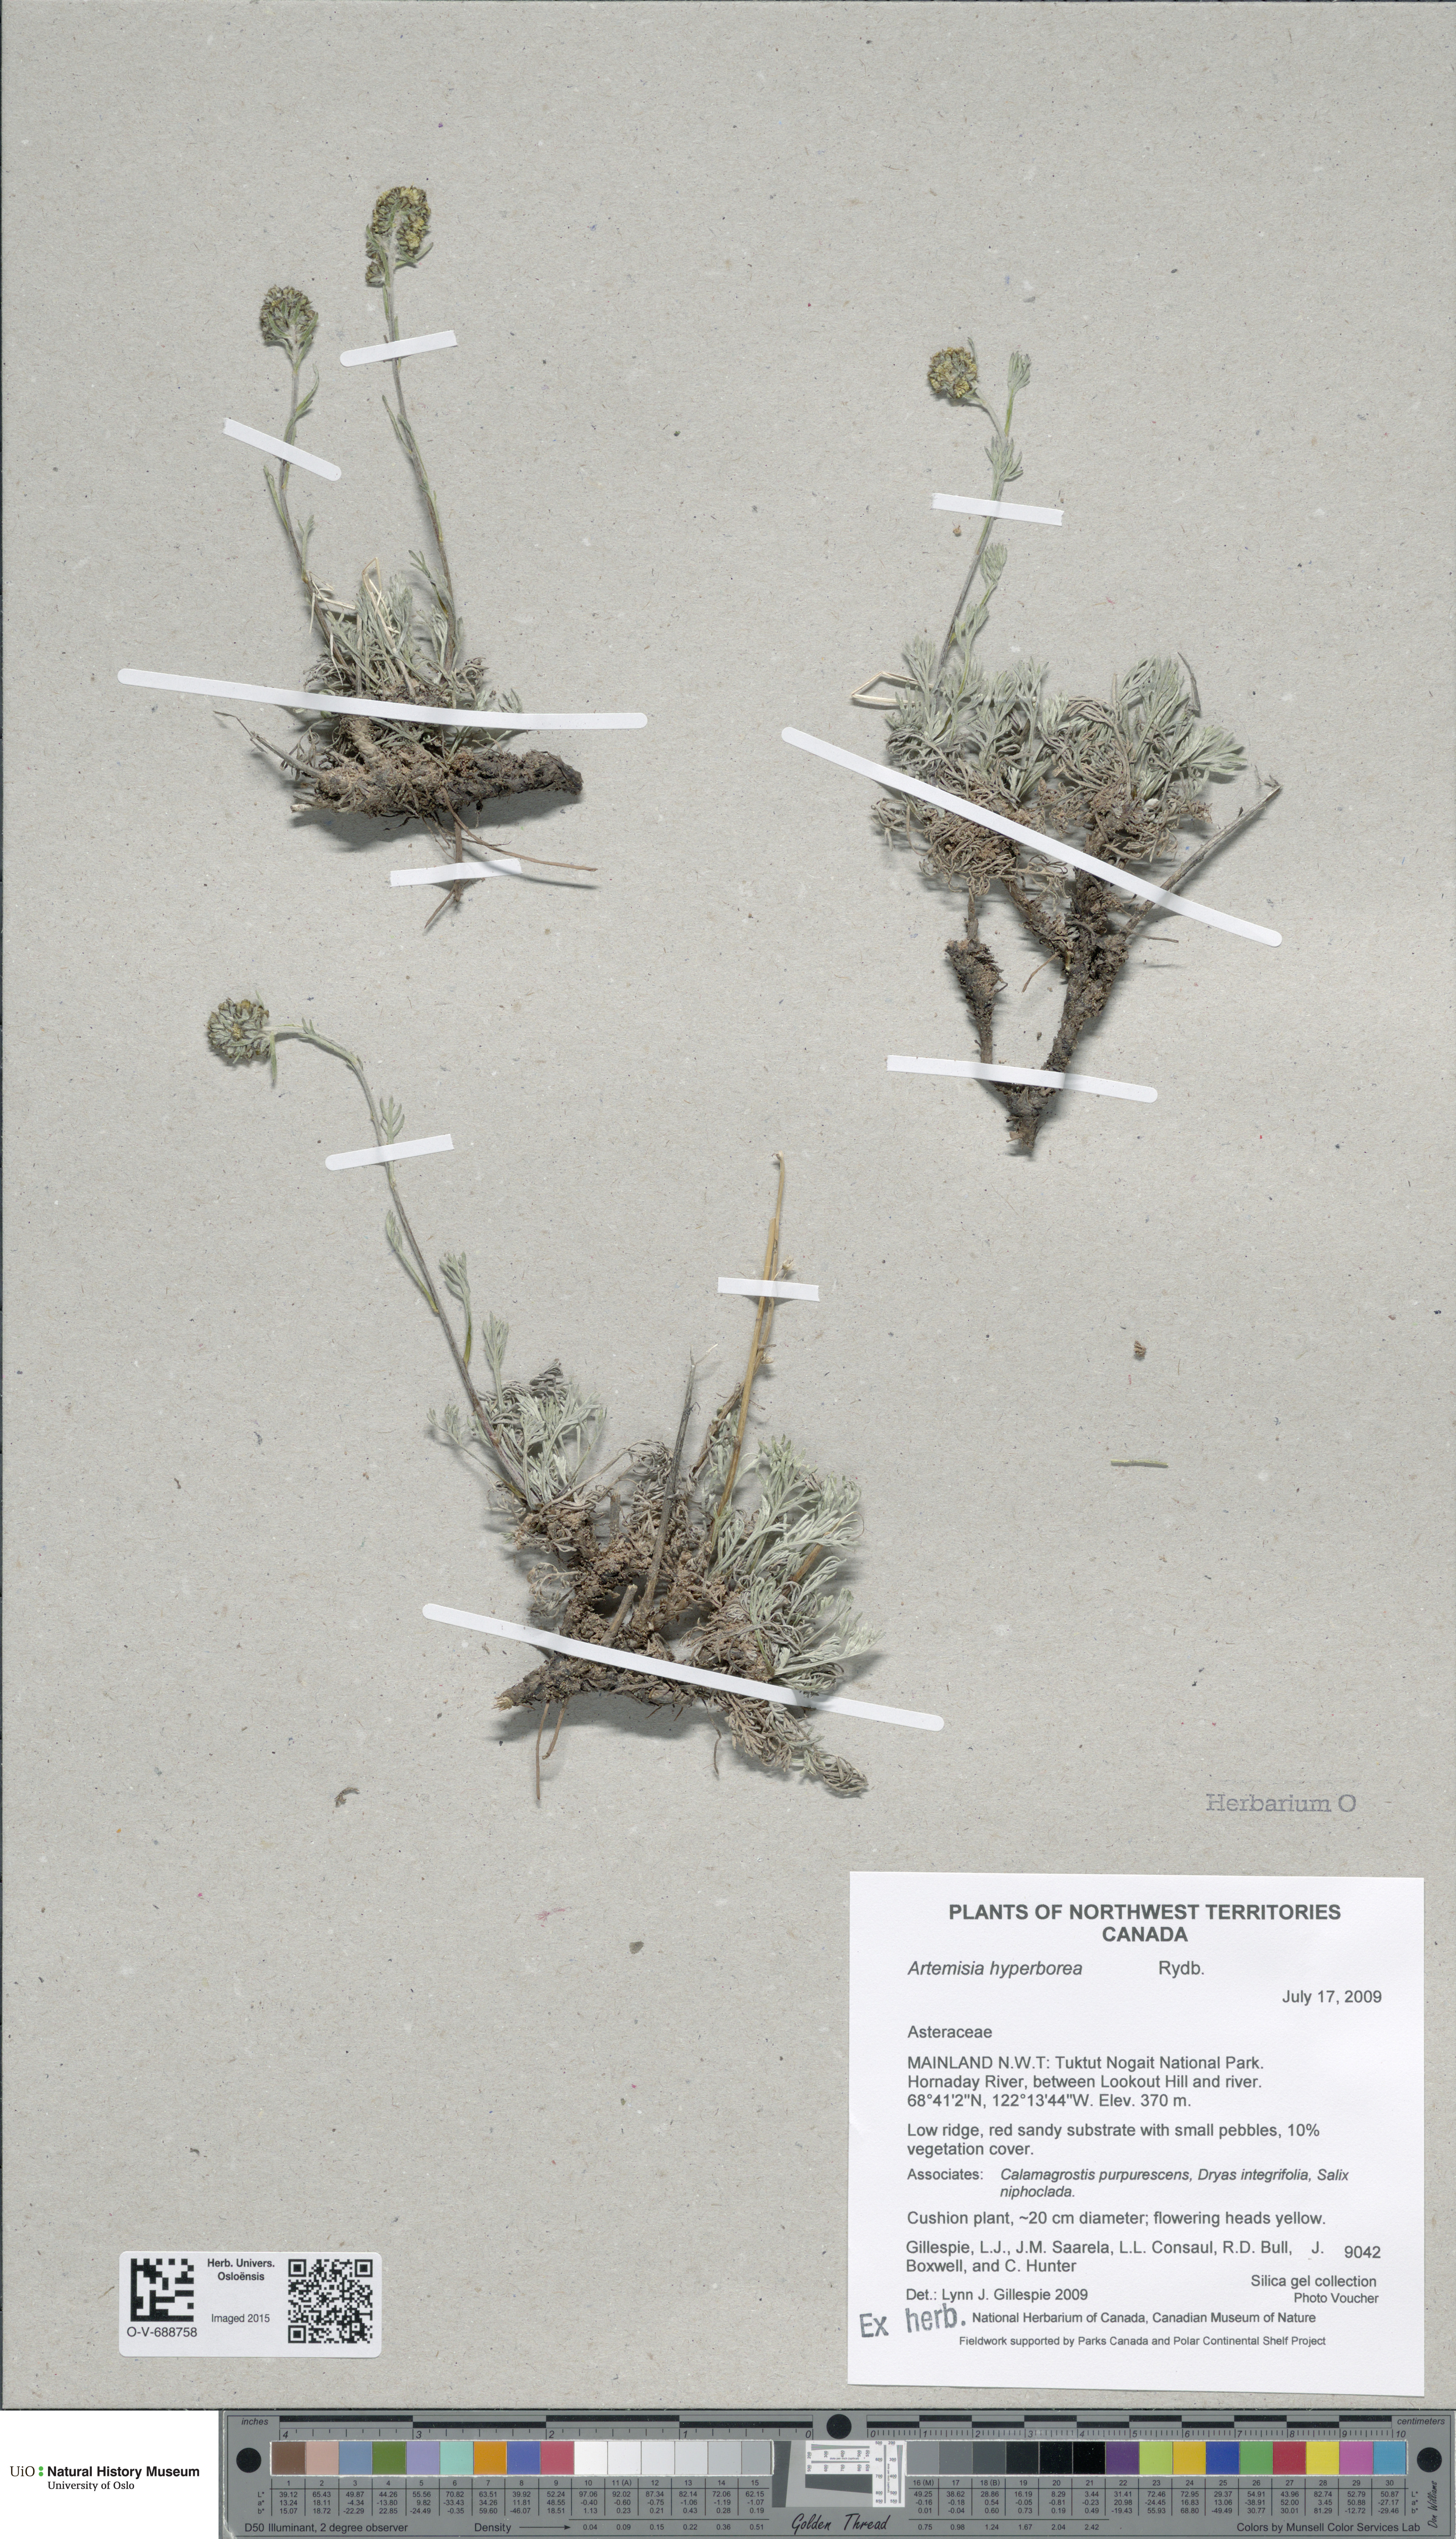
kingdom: Plantae
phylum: Tracheophyta
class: Magnoliopsida
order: Asterales
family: Asteraceae
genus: Artemisia
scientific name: Artemisia furcata
